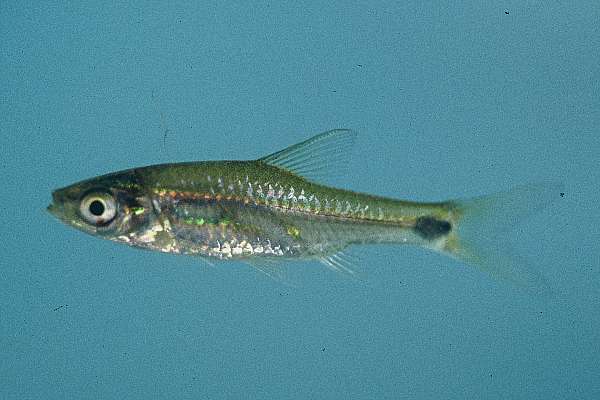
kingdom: Animalia
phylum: Chordata
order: Cypriniformes
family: Cyprinidae
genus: Enteromius
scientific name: Enteromius afrovernayi
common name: Spottail barb
